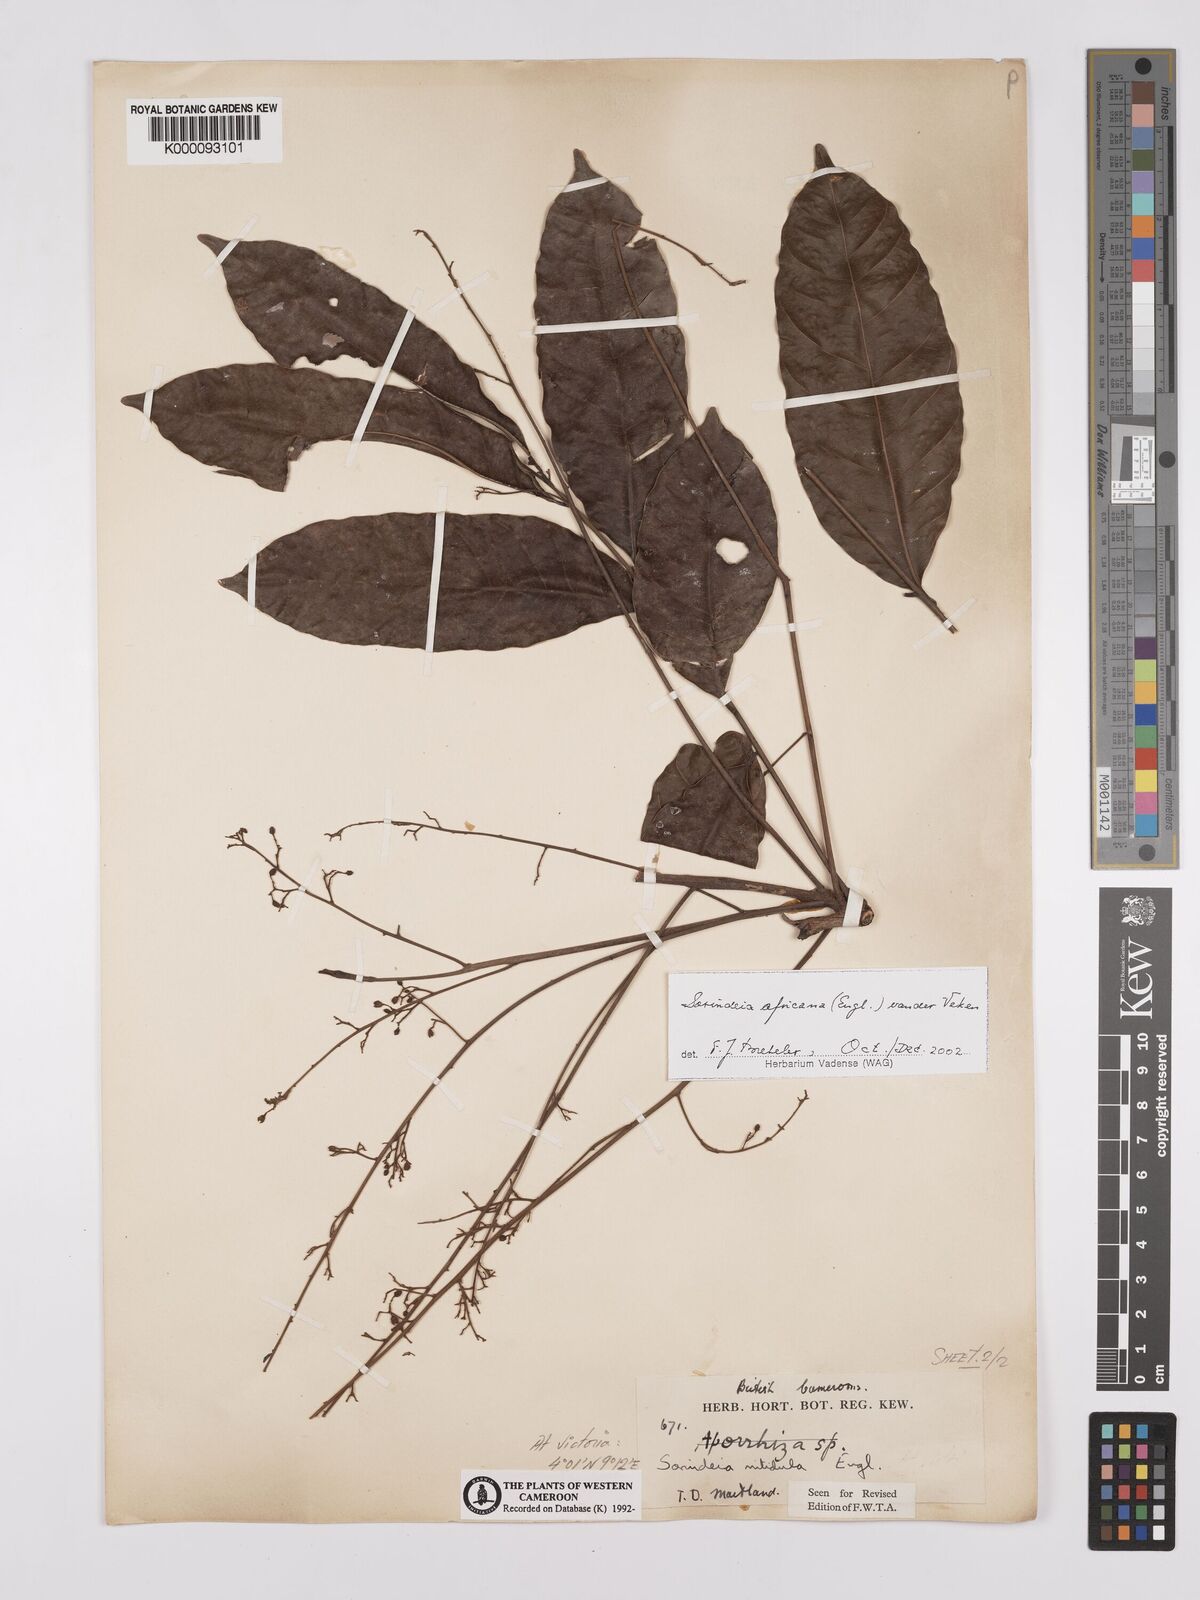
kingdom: Plantae
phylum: Tracheophyta
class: Magnoliopsida
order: Sapindales
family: Anacardiaceae
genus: Sorindeia
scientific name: Sorindeia africana
